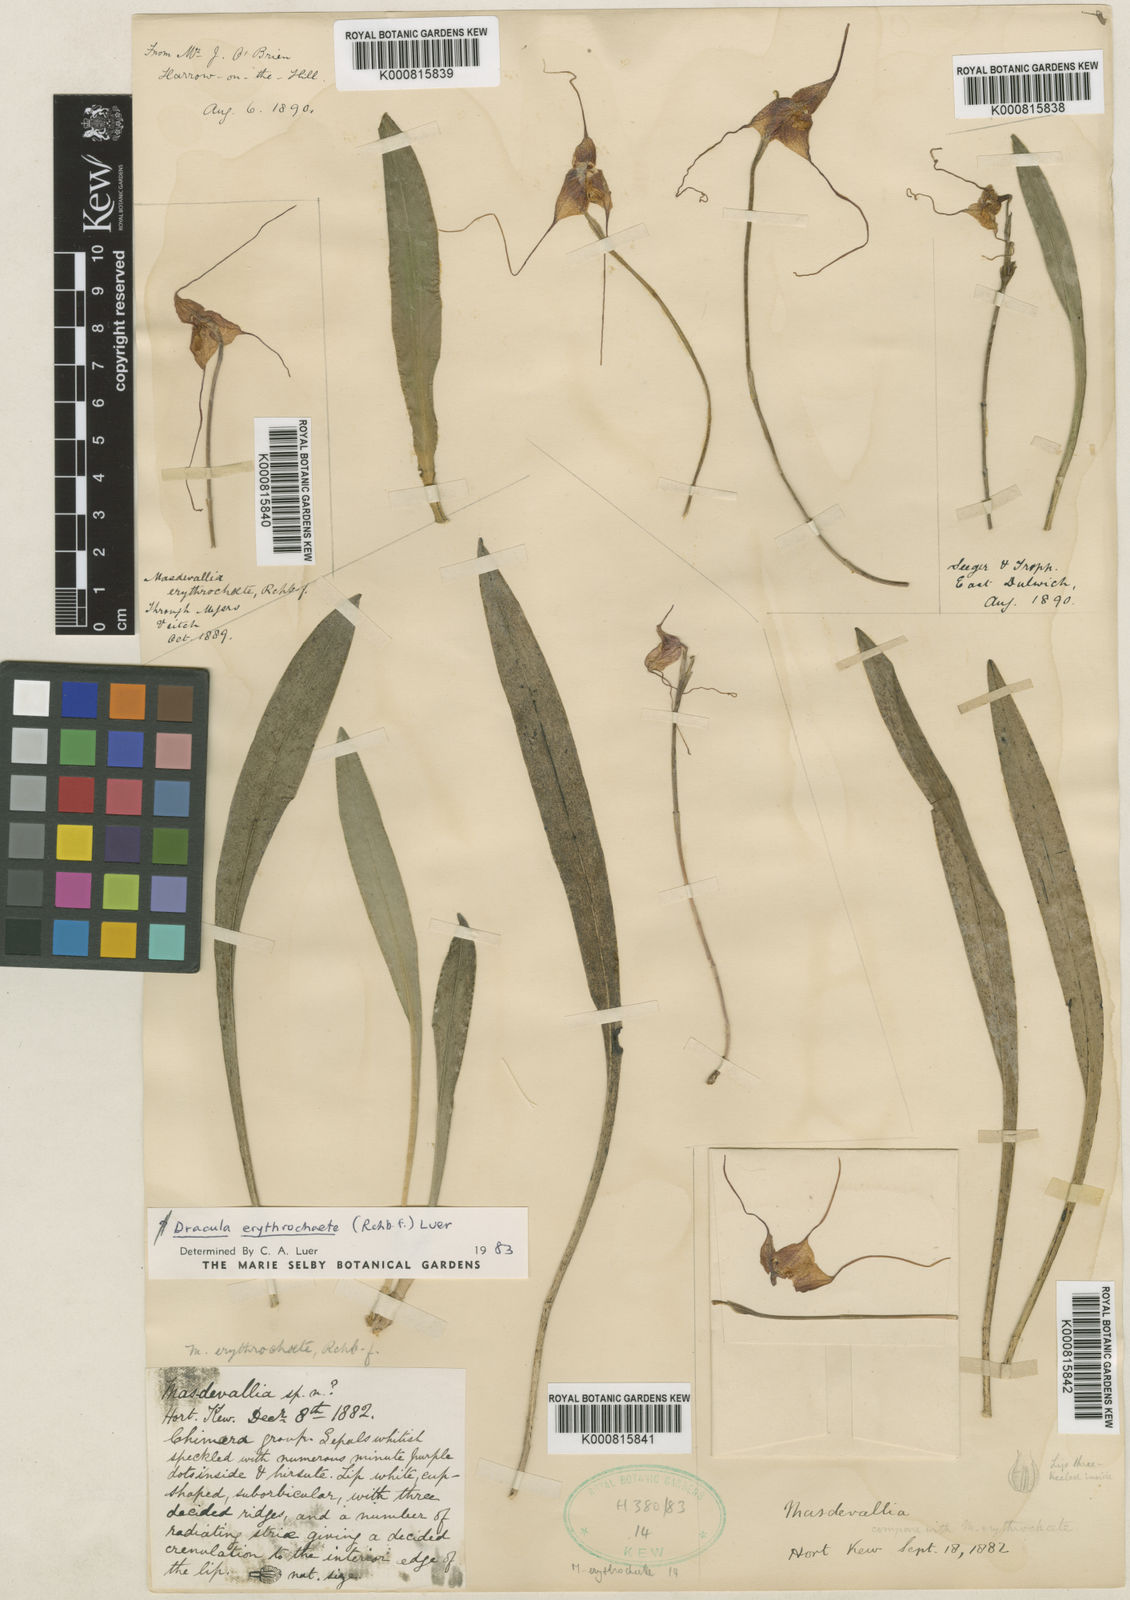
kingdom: Plantae
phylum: Tracheophyta
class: Liliopsida
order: Asparagales
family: Orchidaceae
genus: Dracula
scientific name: Dracula erythrochaete
